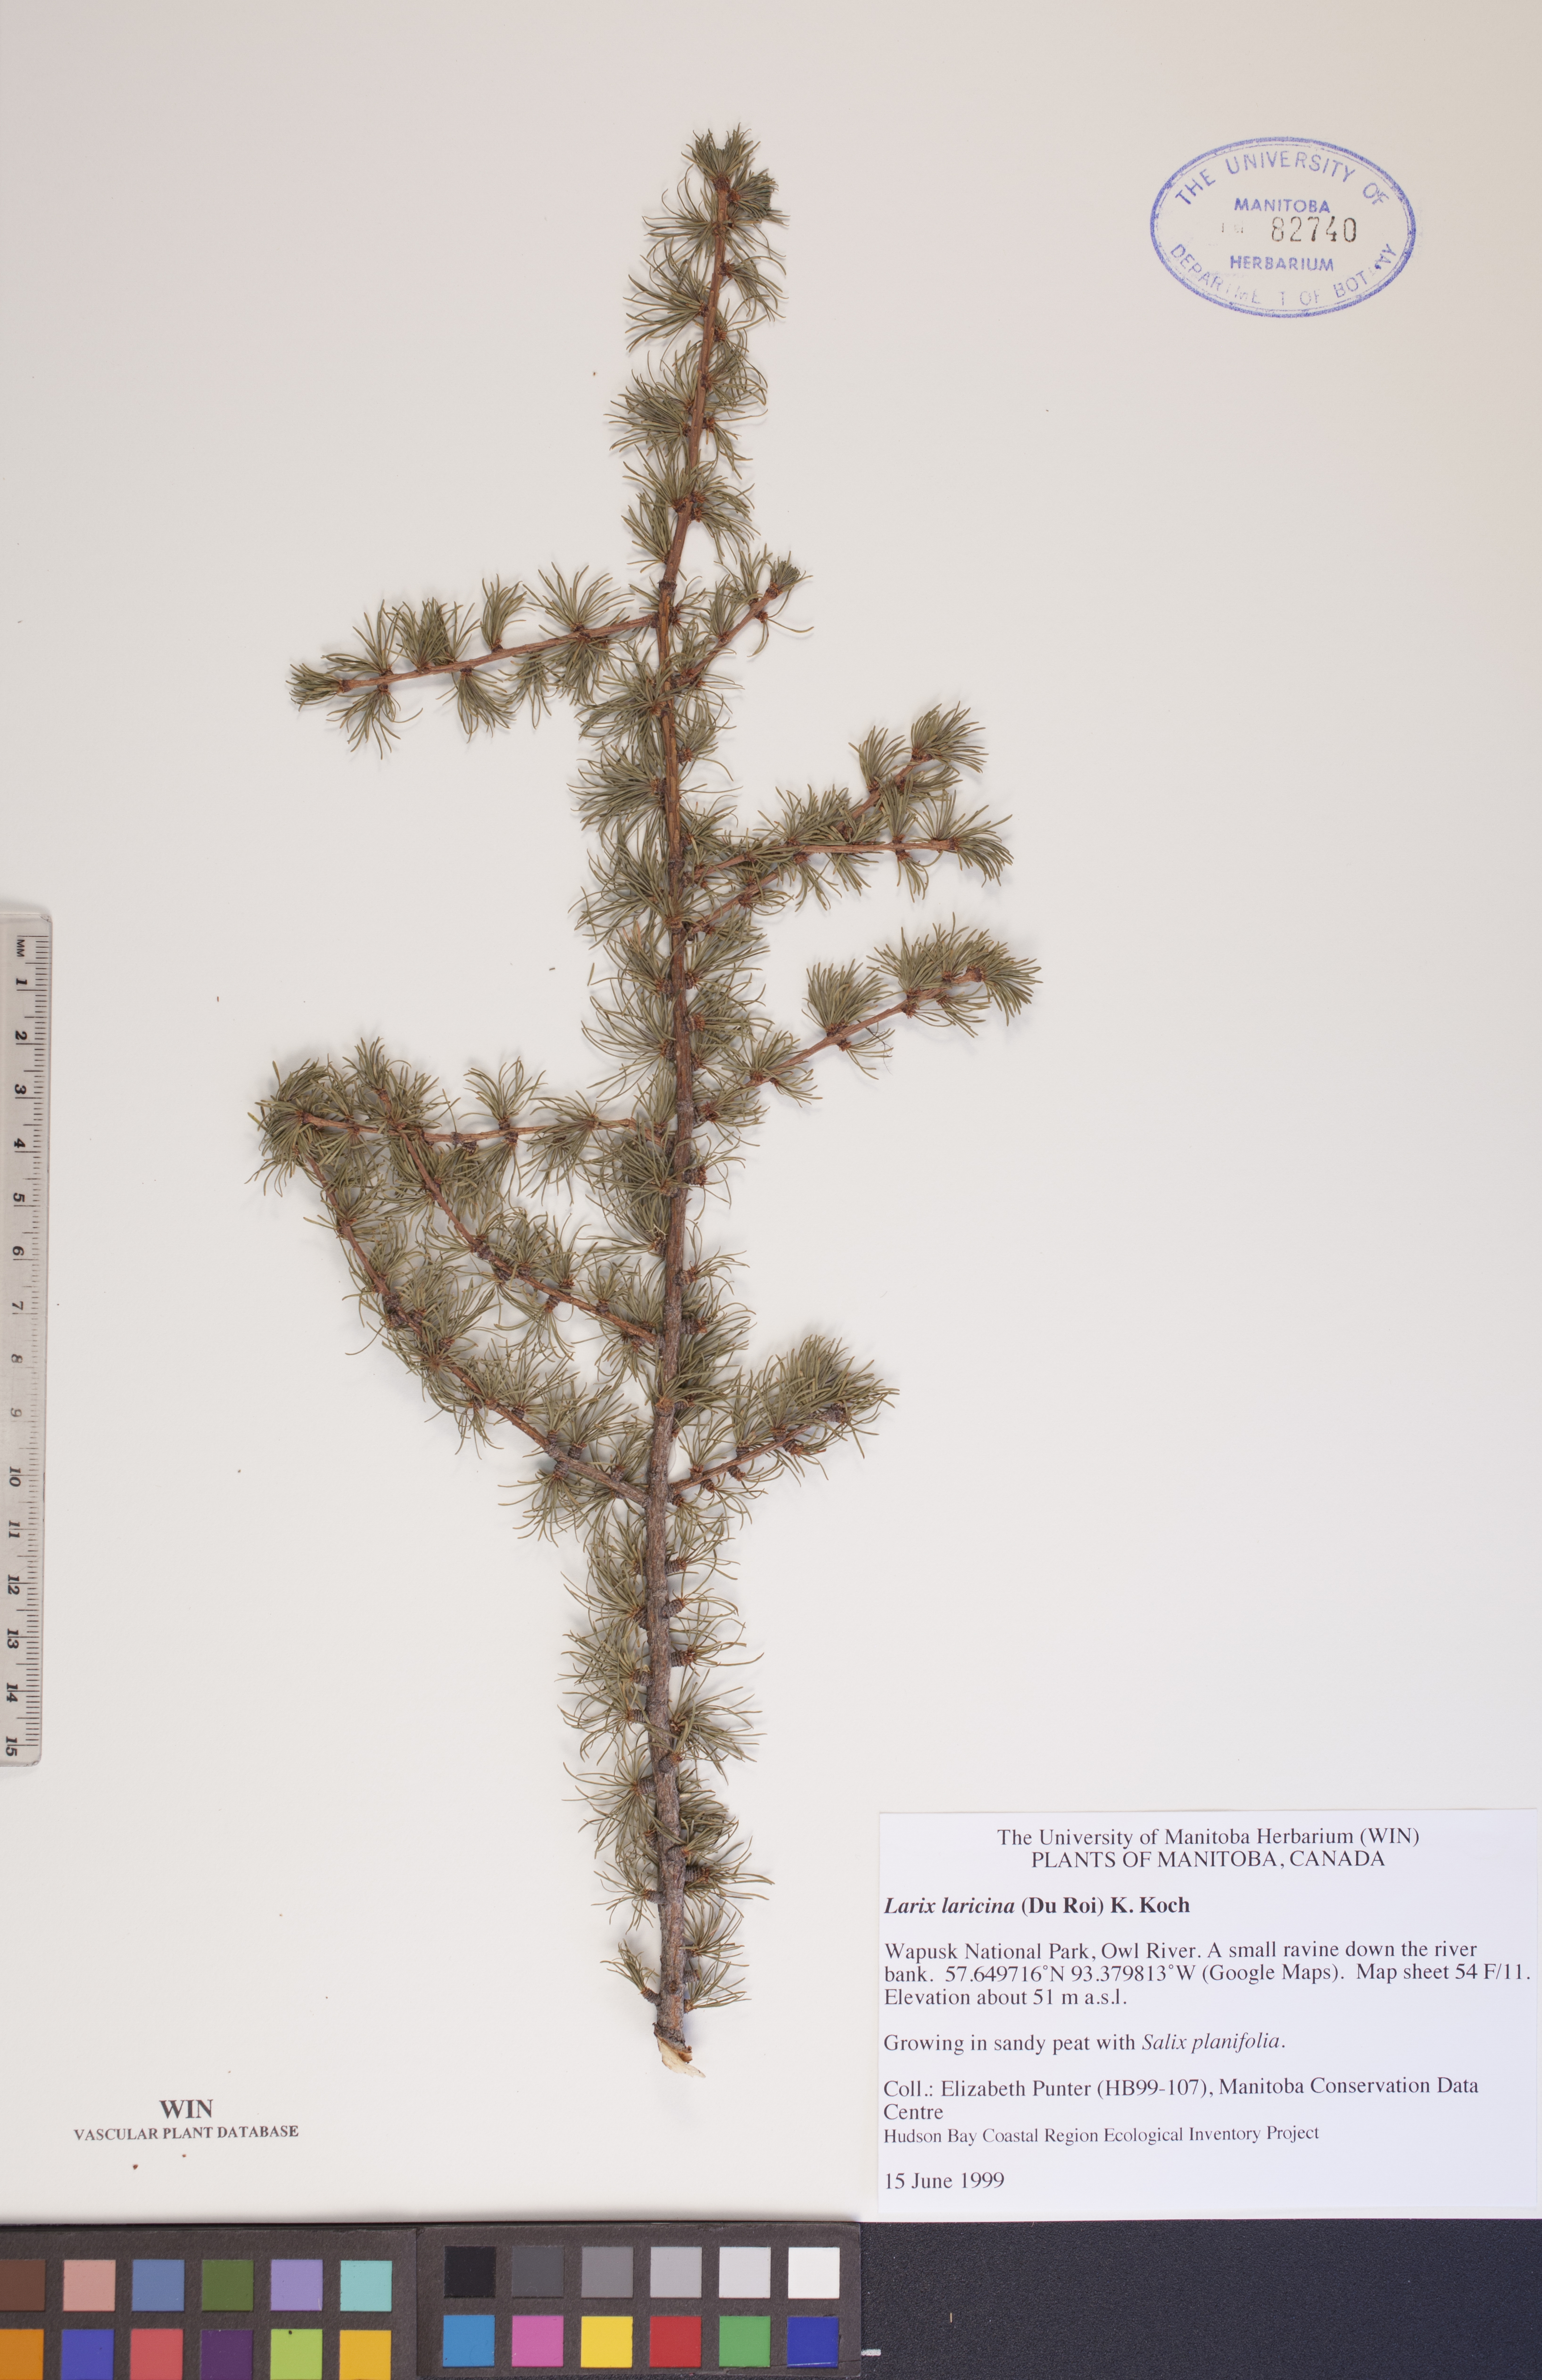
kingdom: Plantae
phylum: Tracheophyta
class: Pinopsida
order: Pinales
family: Pinaceae
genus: Larix
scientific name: Larix laricina
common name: American larch
